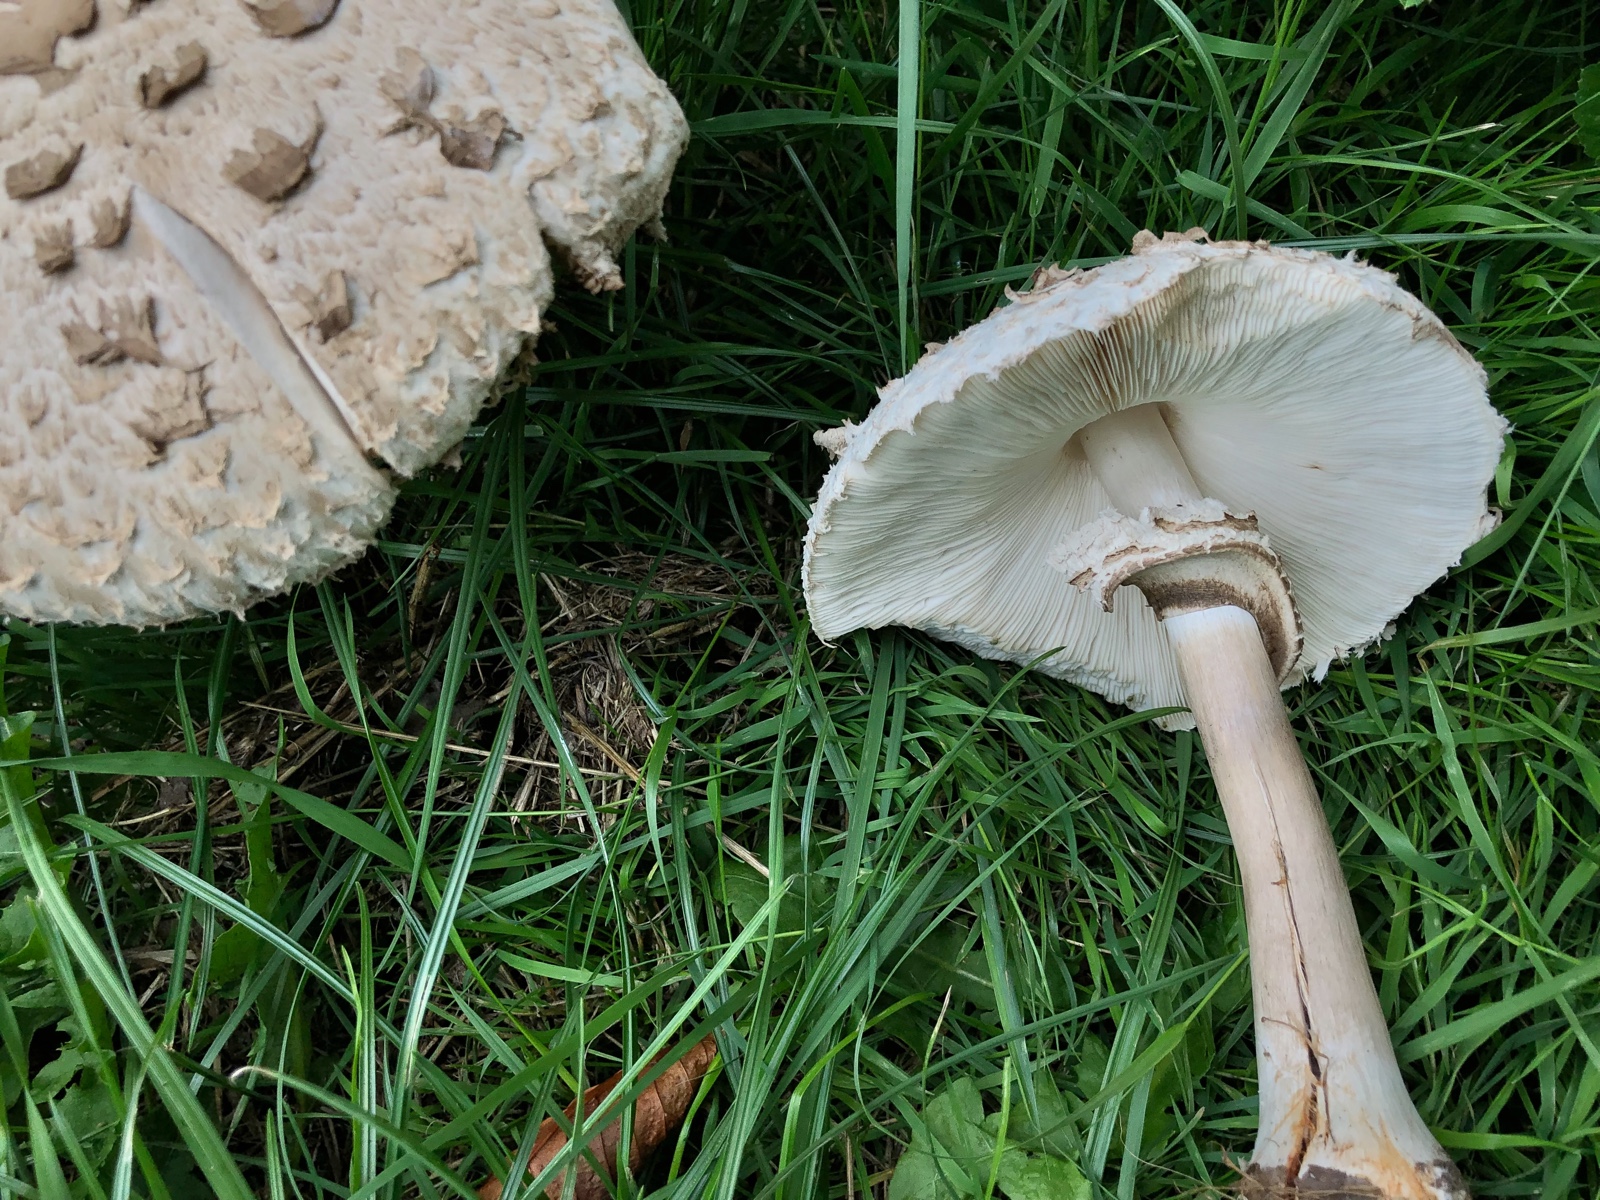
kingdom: Fungi
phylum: Basidiomycota
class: Agaricomycetes
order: Agaricales
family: Agaricaceae
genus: Chlorophyllum
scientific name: Chlorophyllum rhacodes
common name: ægte rabarberhat
